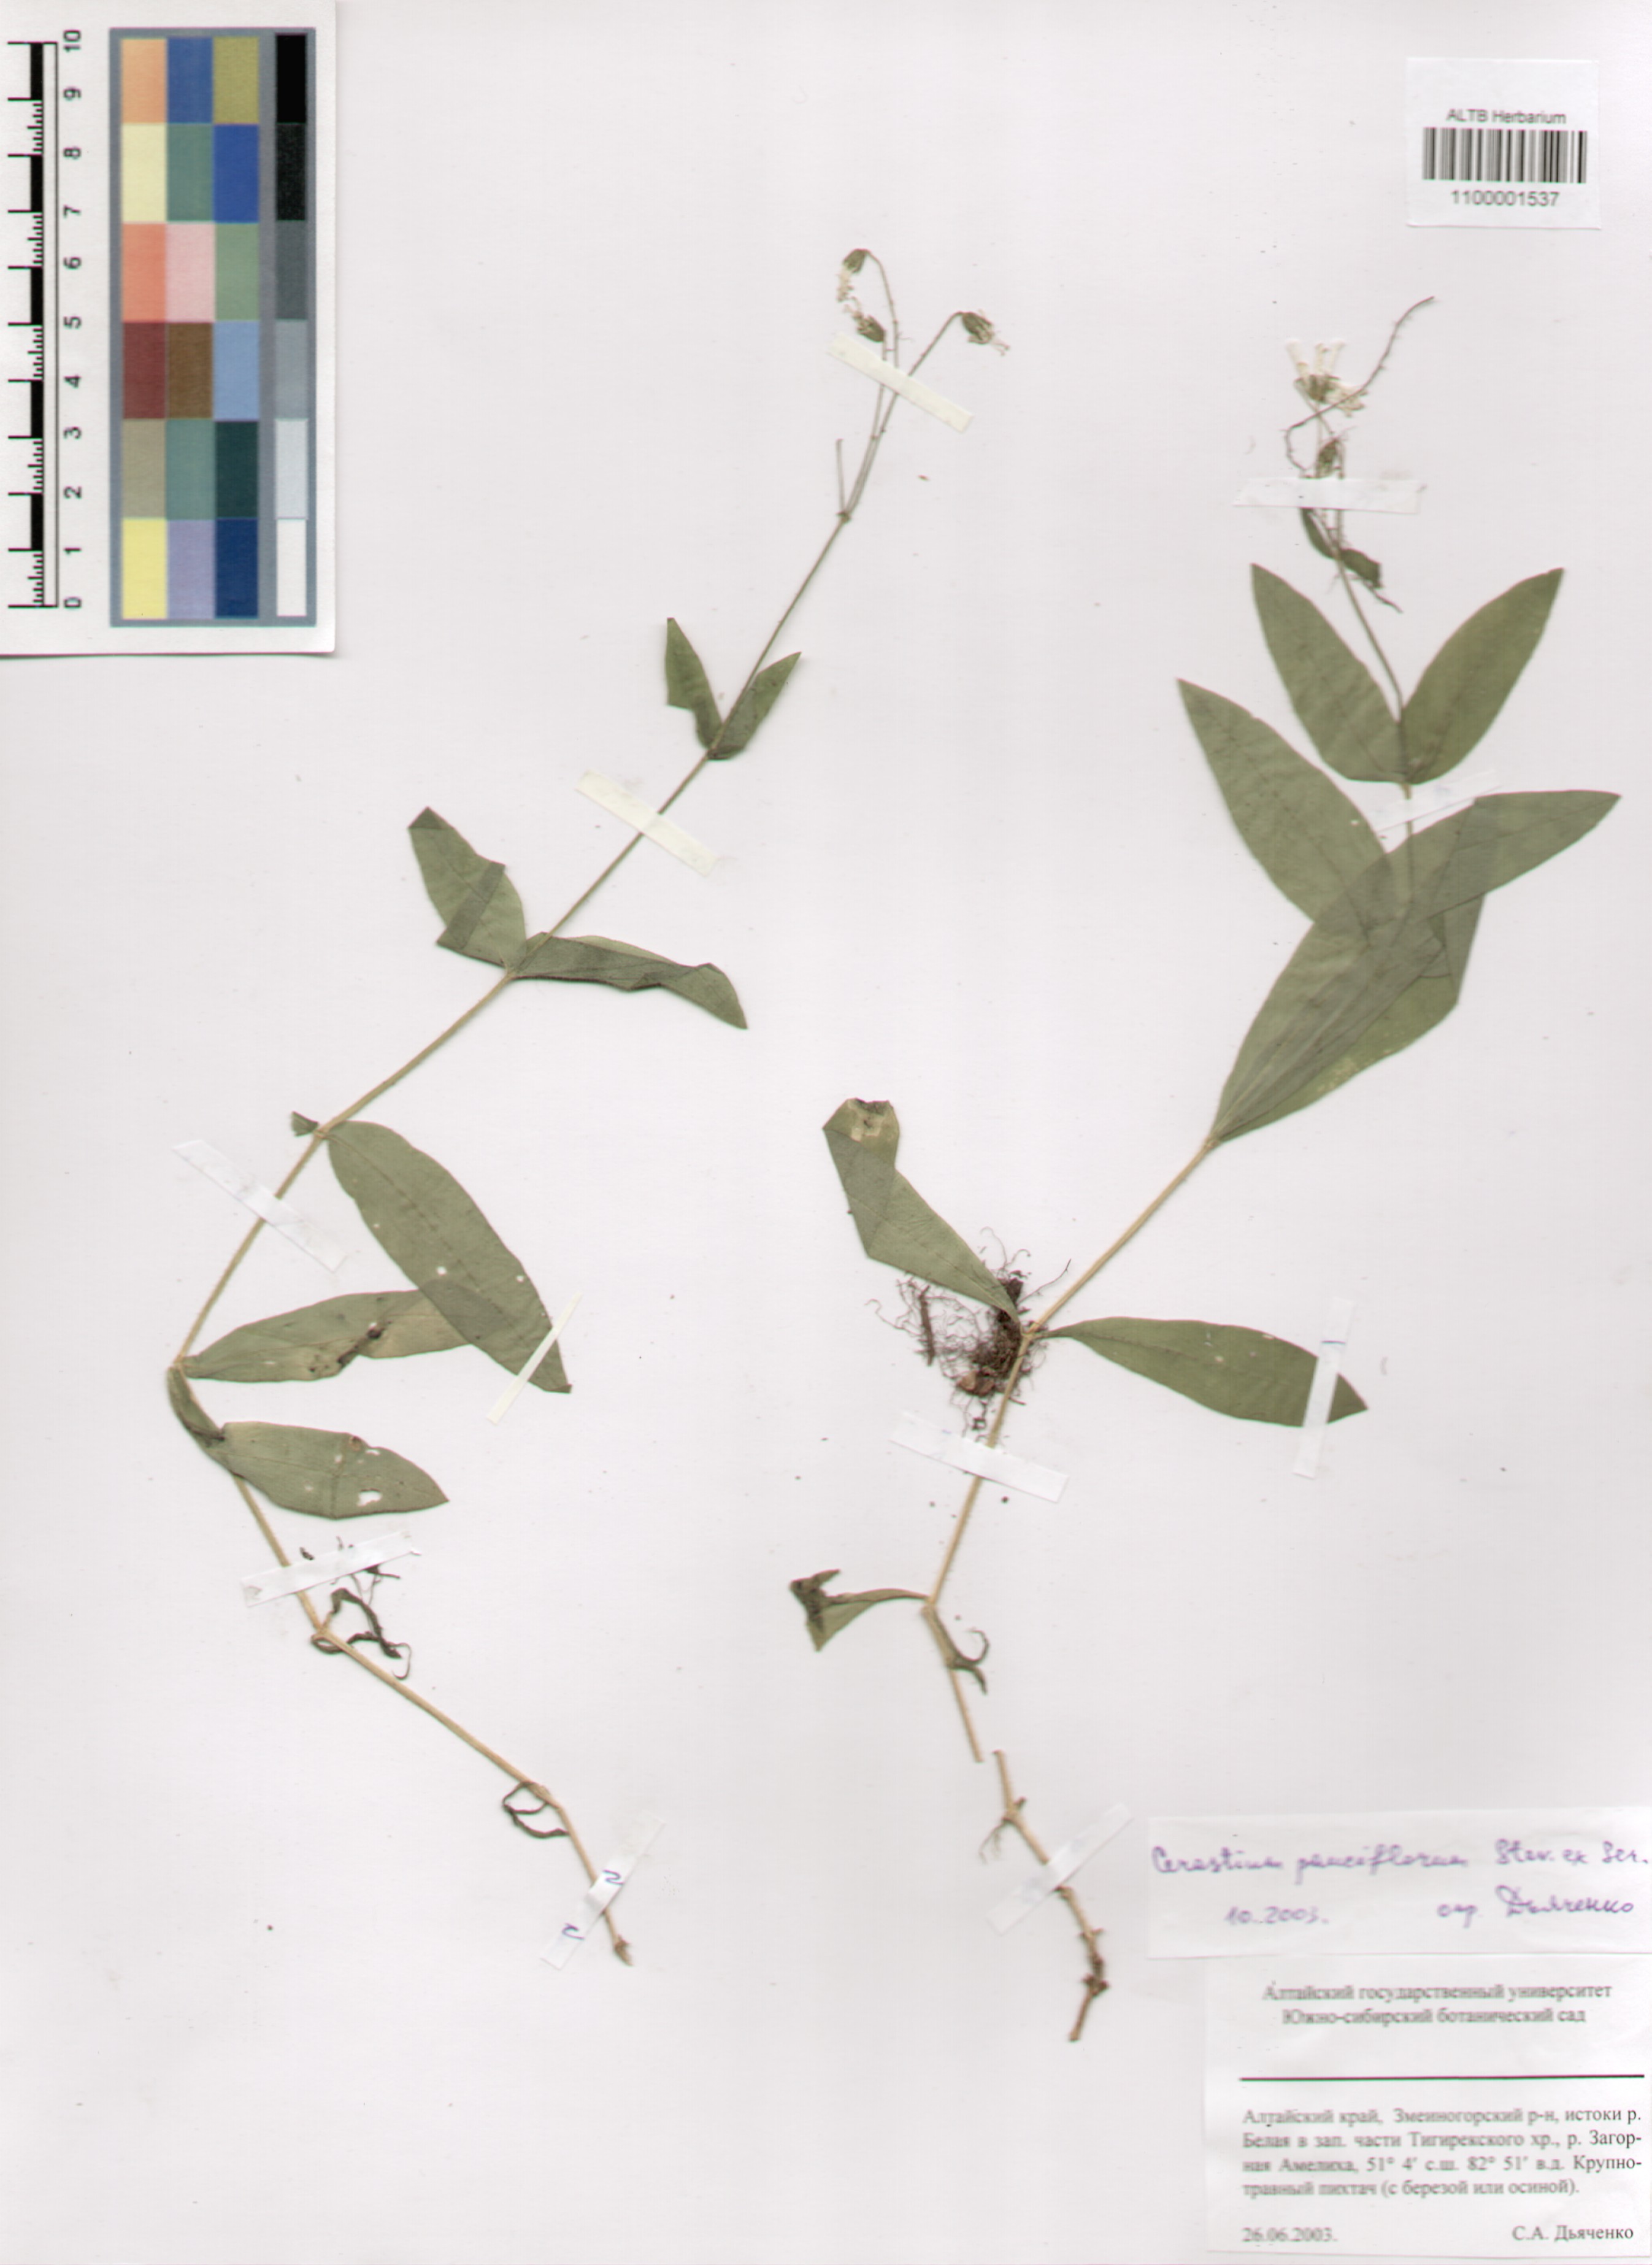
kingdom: Plantae
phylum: Tracheophyta
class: Magnoliopsida
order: Caryophyllales
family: Caryophyllaceae
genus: Cerastium
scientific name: Cerastium pauciflorum
